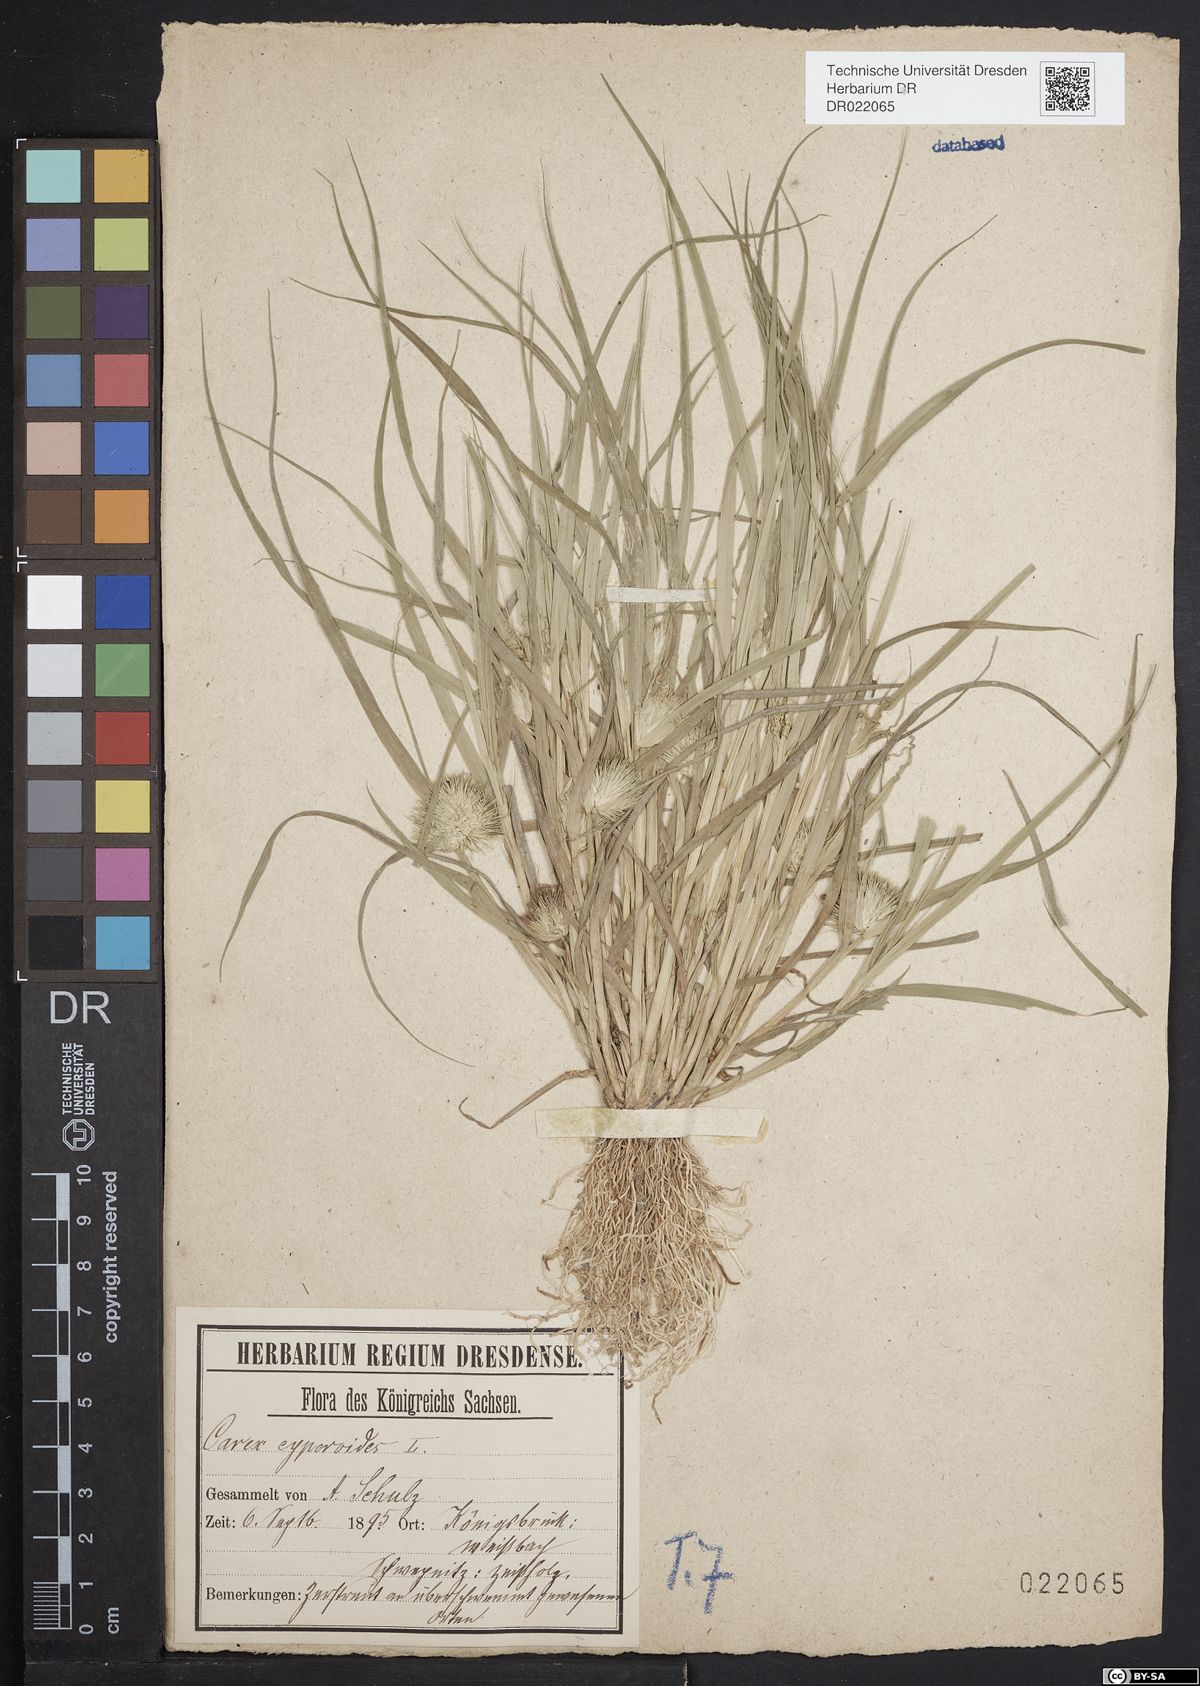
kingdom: Plantae
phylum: Tracheophyta
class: Liliopsida
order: Poales
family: Cyperaceae
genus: Carex
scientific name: Carex bohemica
